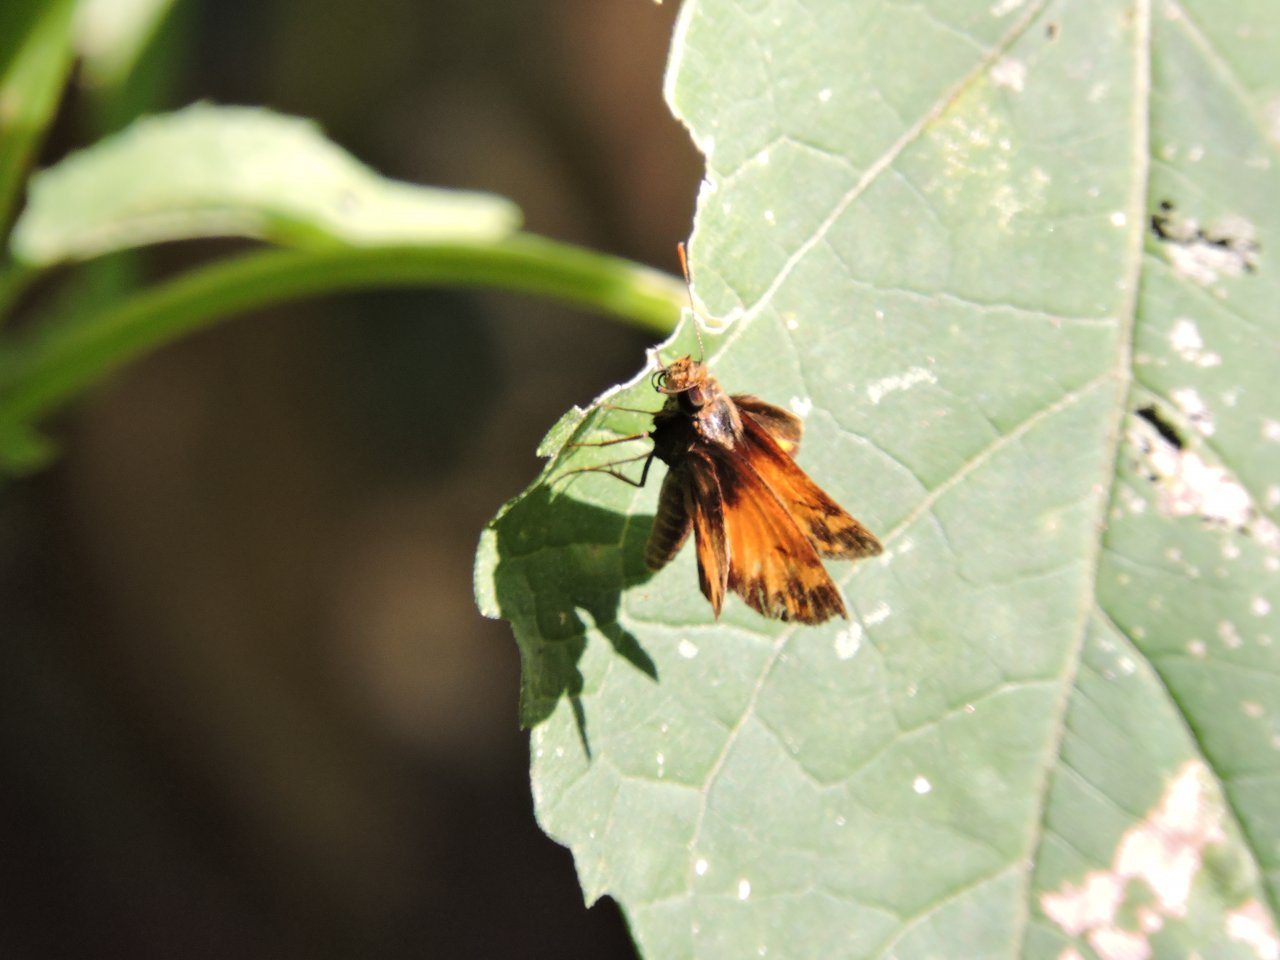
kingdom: Animalia
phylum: Arthropoda
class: Insecta
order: Lepidoptera
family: Hesperiidae
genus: Lon
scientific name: Lon zabulon
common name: Zabulon Skipper
